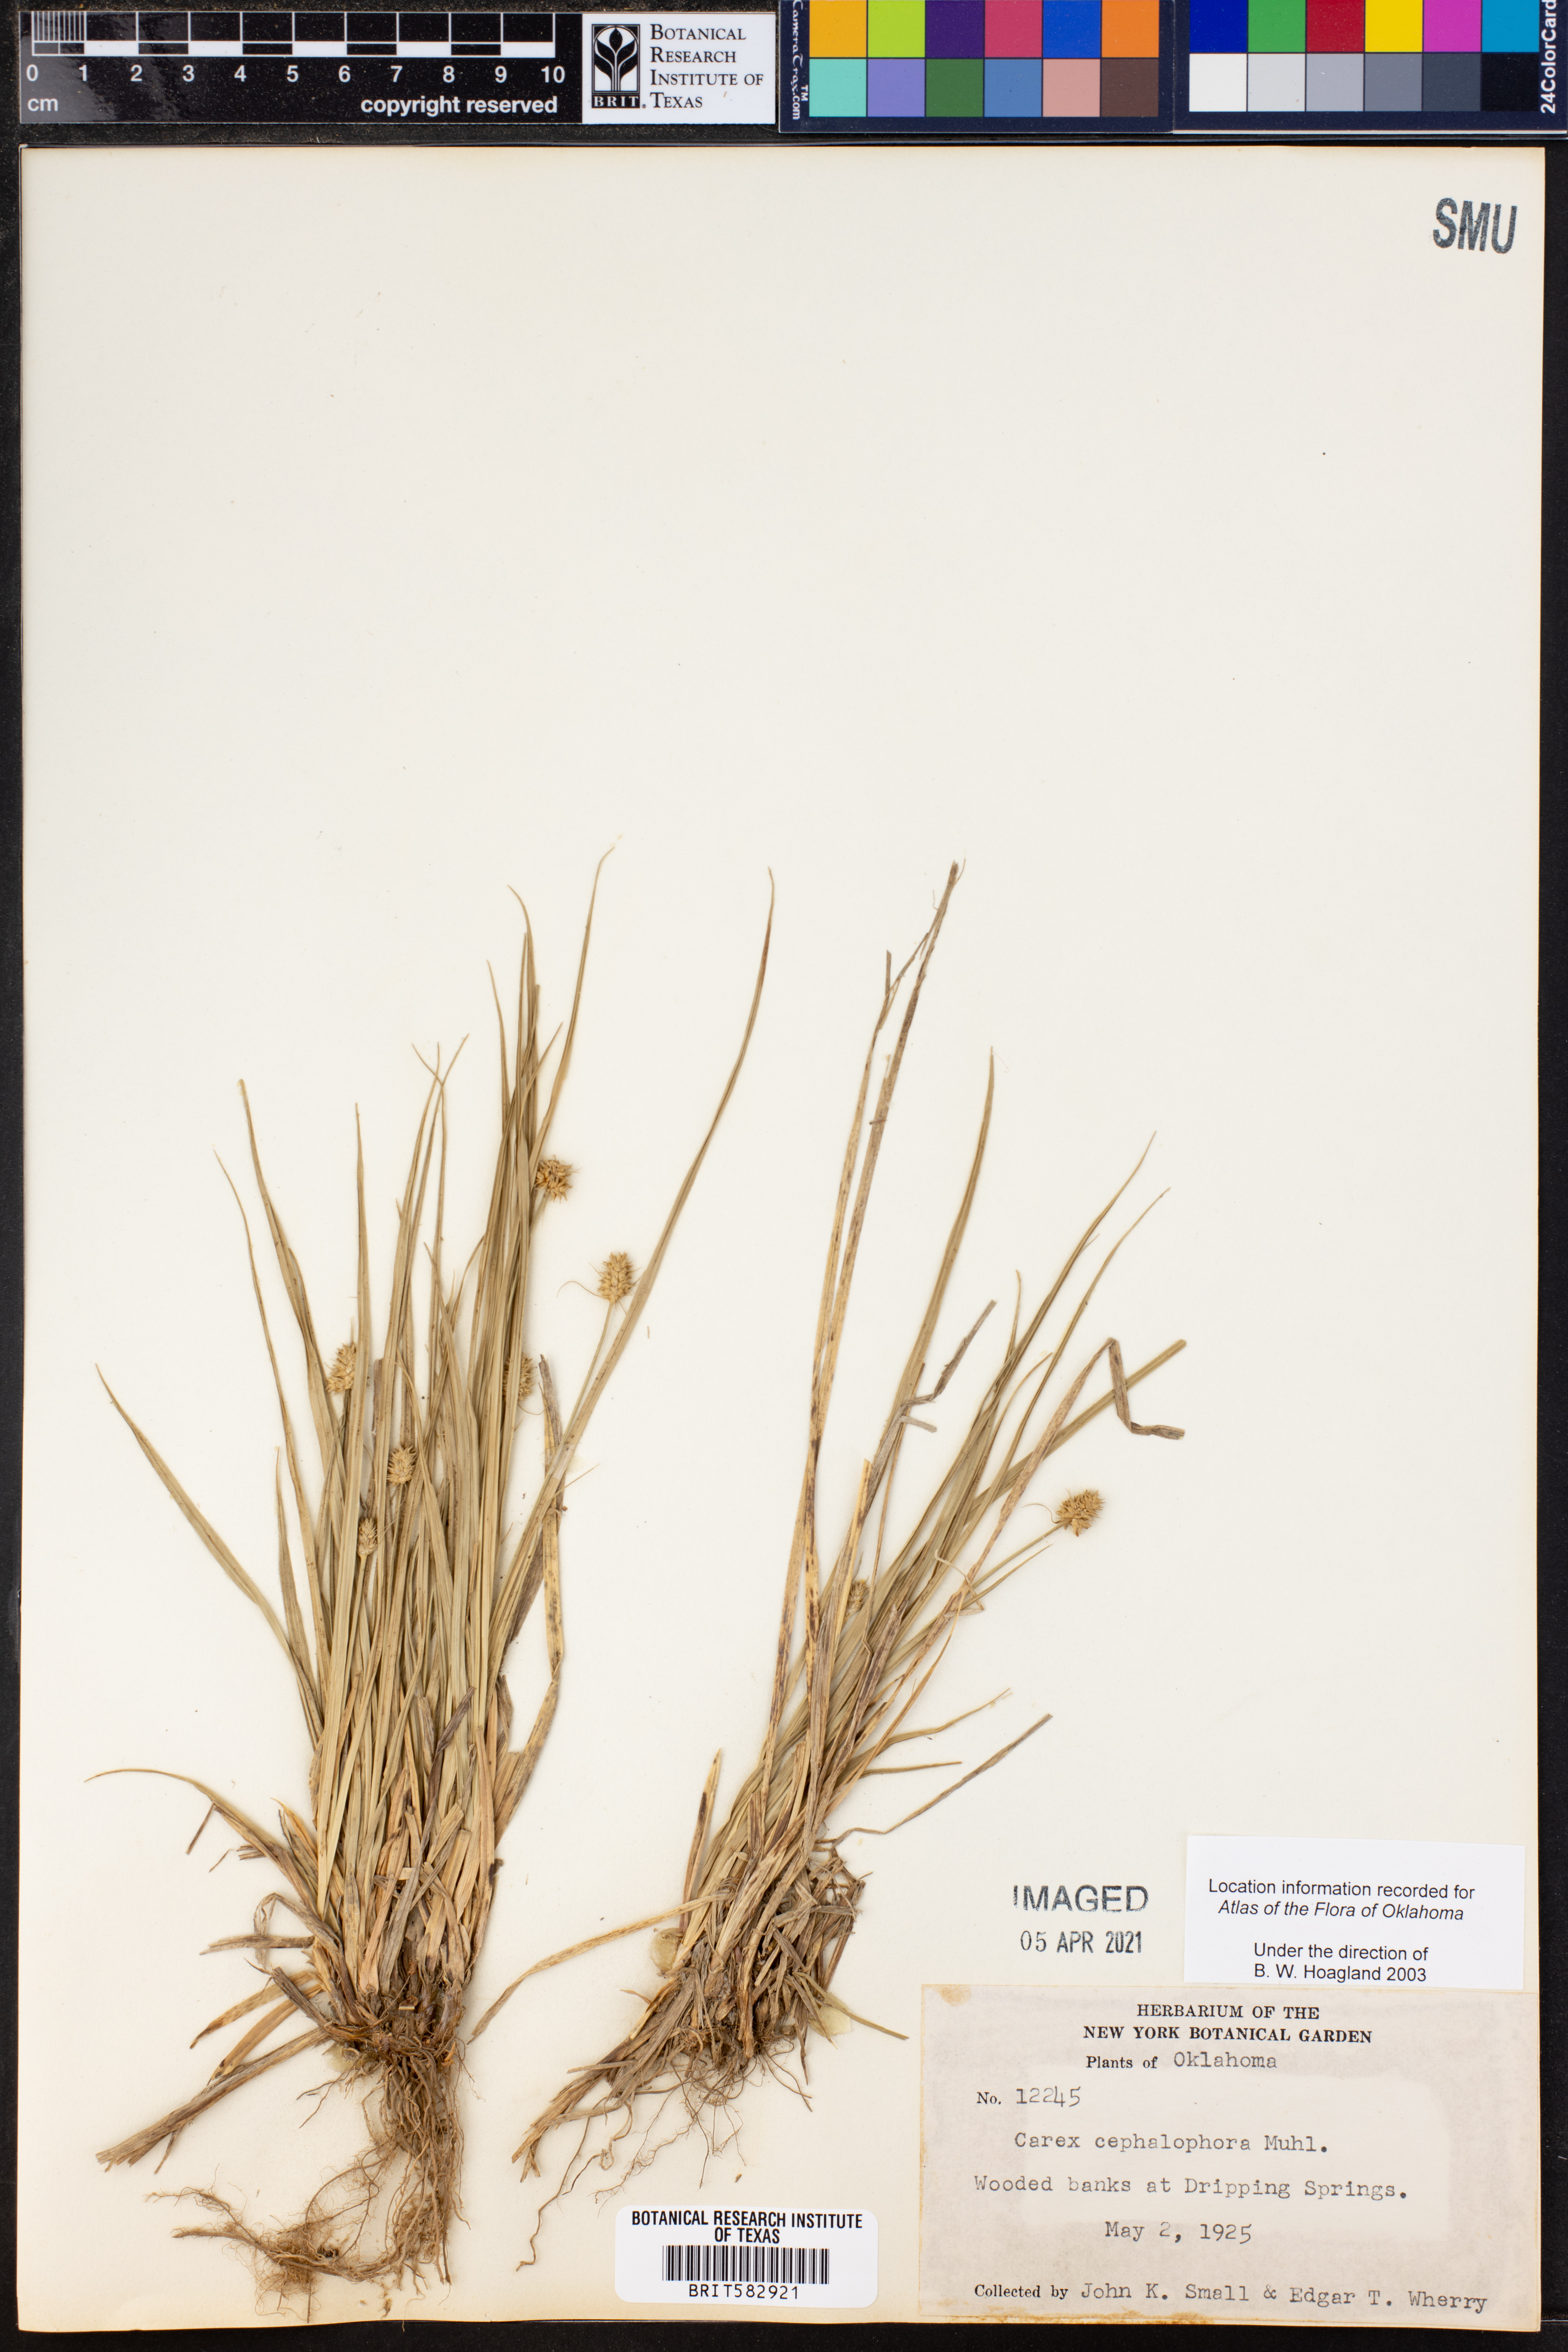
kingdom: Plantae
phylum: Tracheophyta
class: Liliopsida
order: Poales
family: Cyperaceae
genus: Carex
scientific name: Carex cephalophora
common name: Oval-headed sedge
